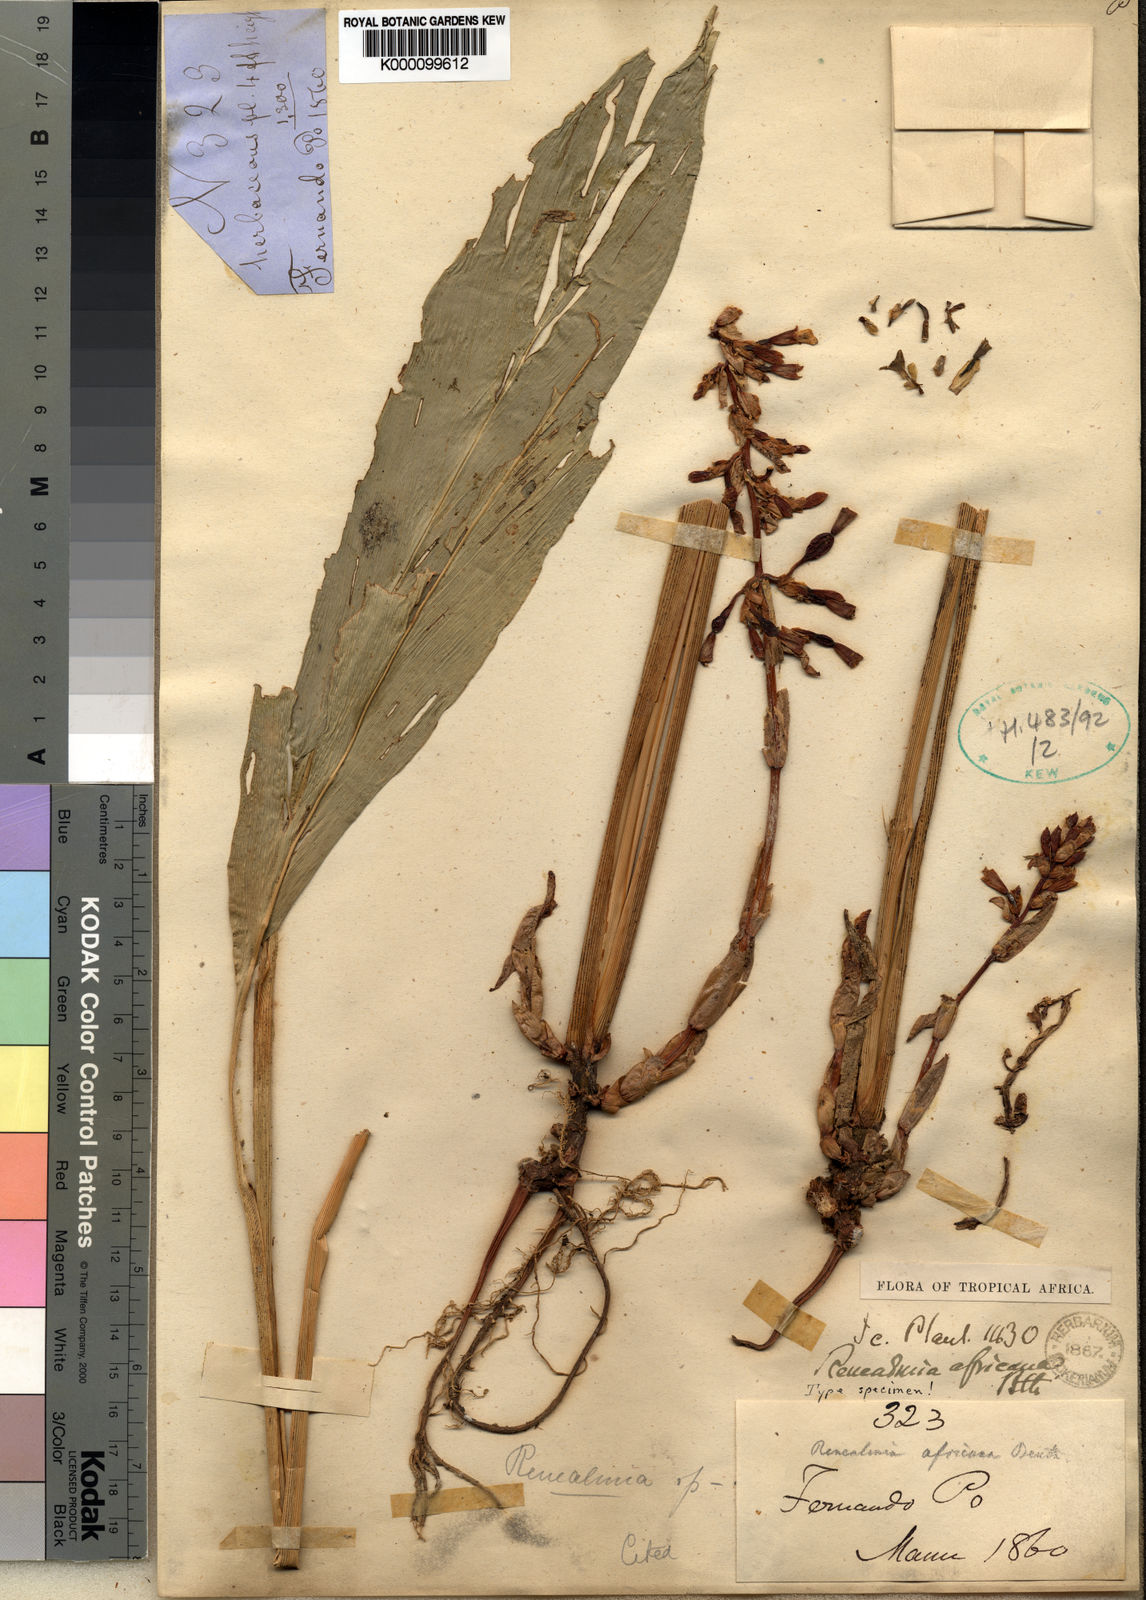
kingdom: Plantae
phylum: Tracheophyta
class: Liliopsida
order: Zingiberales
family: Zingiberaceae
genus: Renealmia
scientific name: Renealmia
